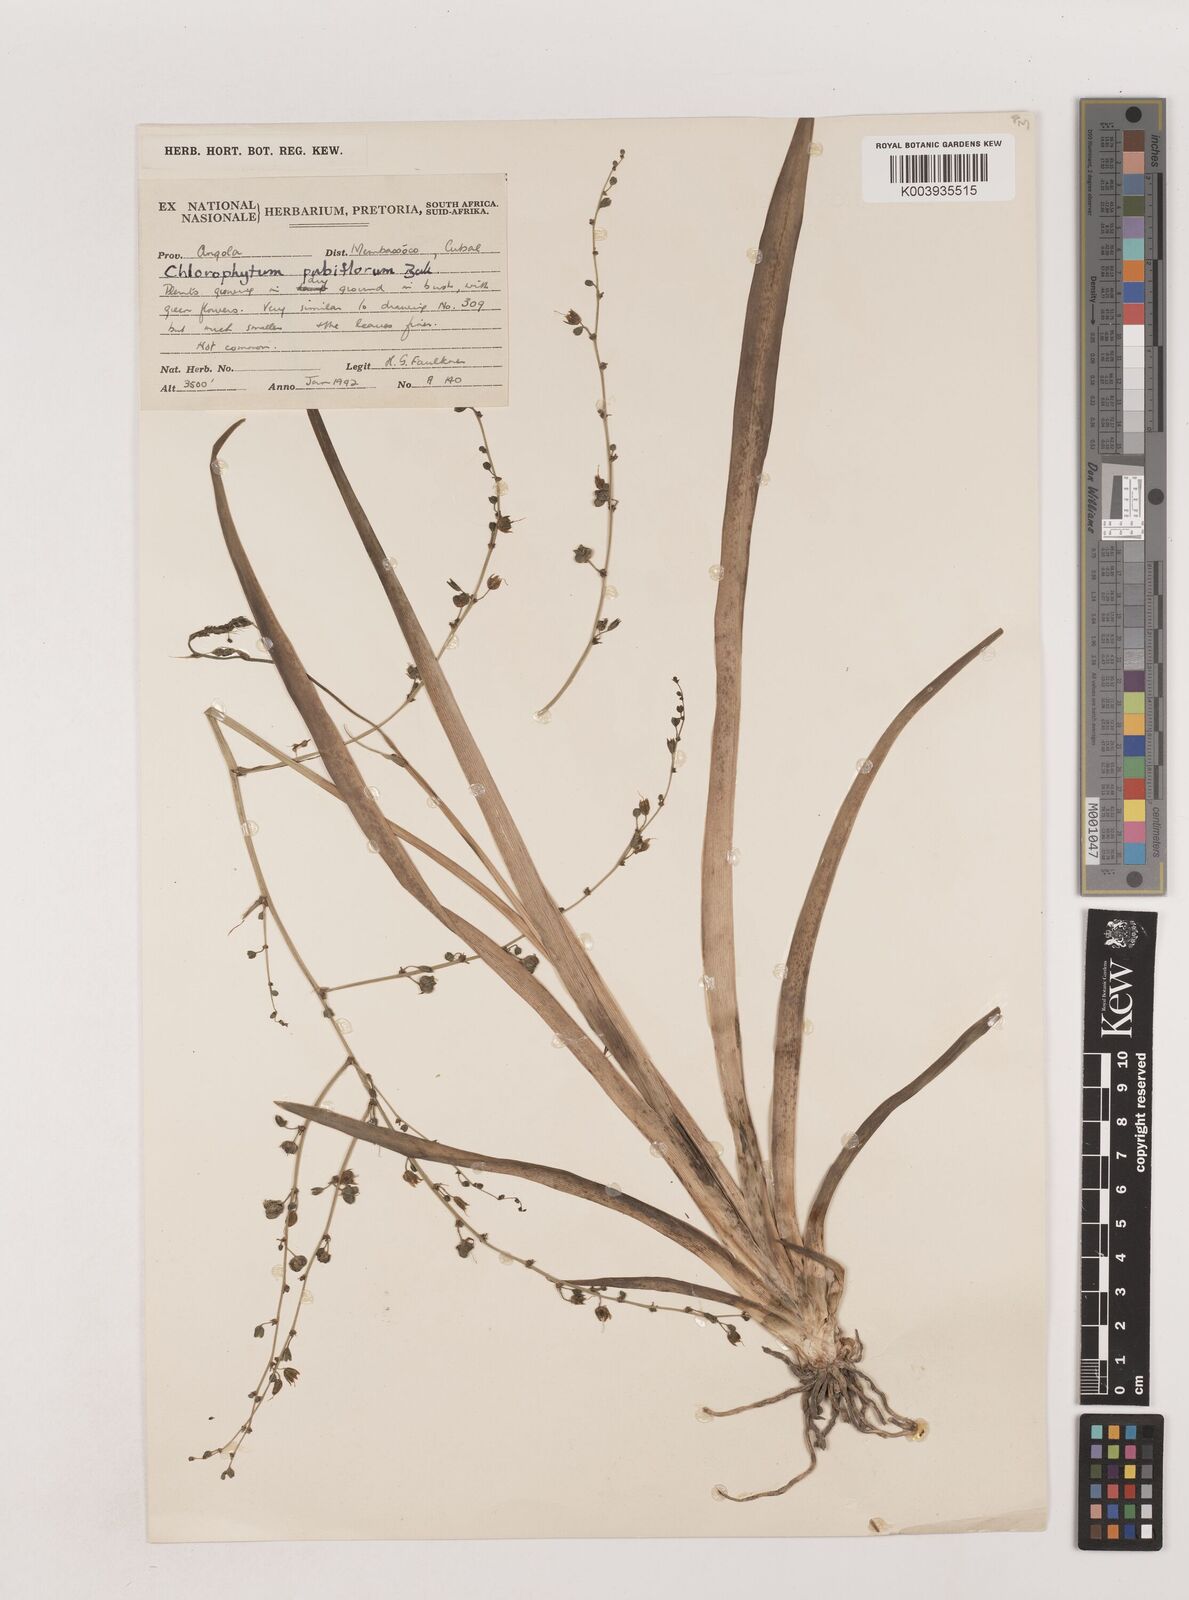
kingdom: Plantae
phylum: Tracheophyta
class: Liliopsida
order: Asparagales
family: Asparagaceae
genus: Chlorophytum
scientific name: Chlorophytum pubiflorum
